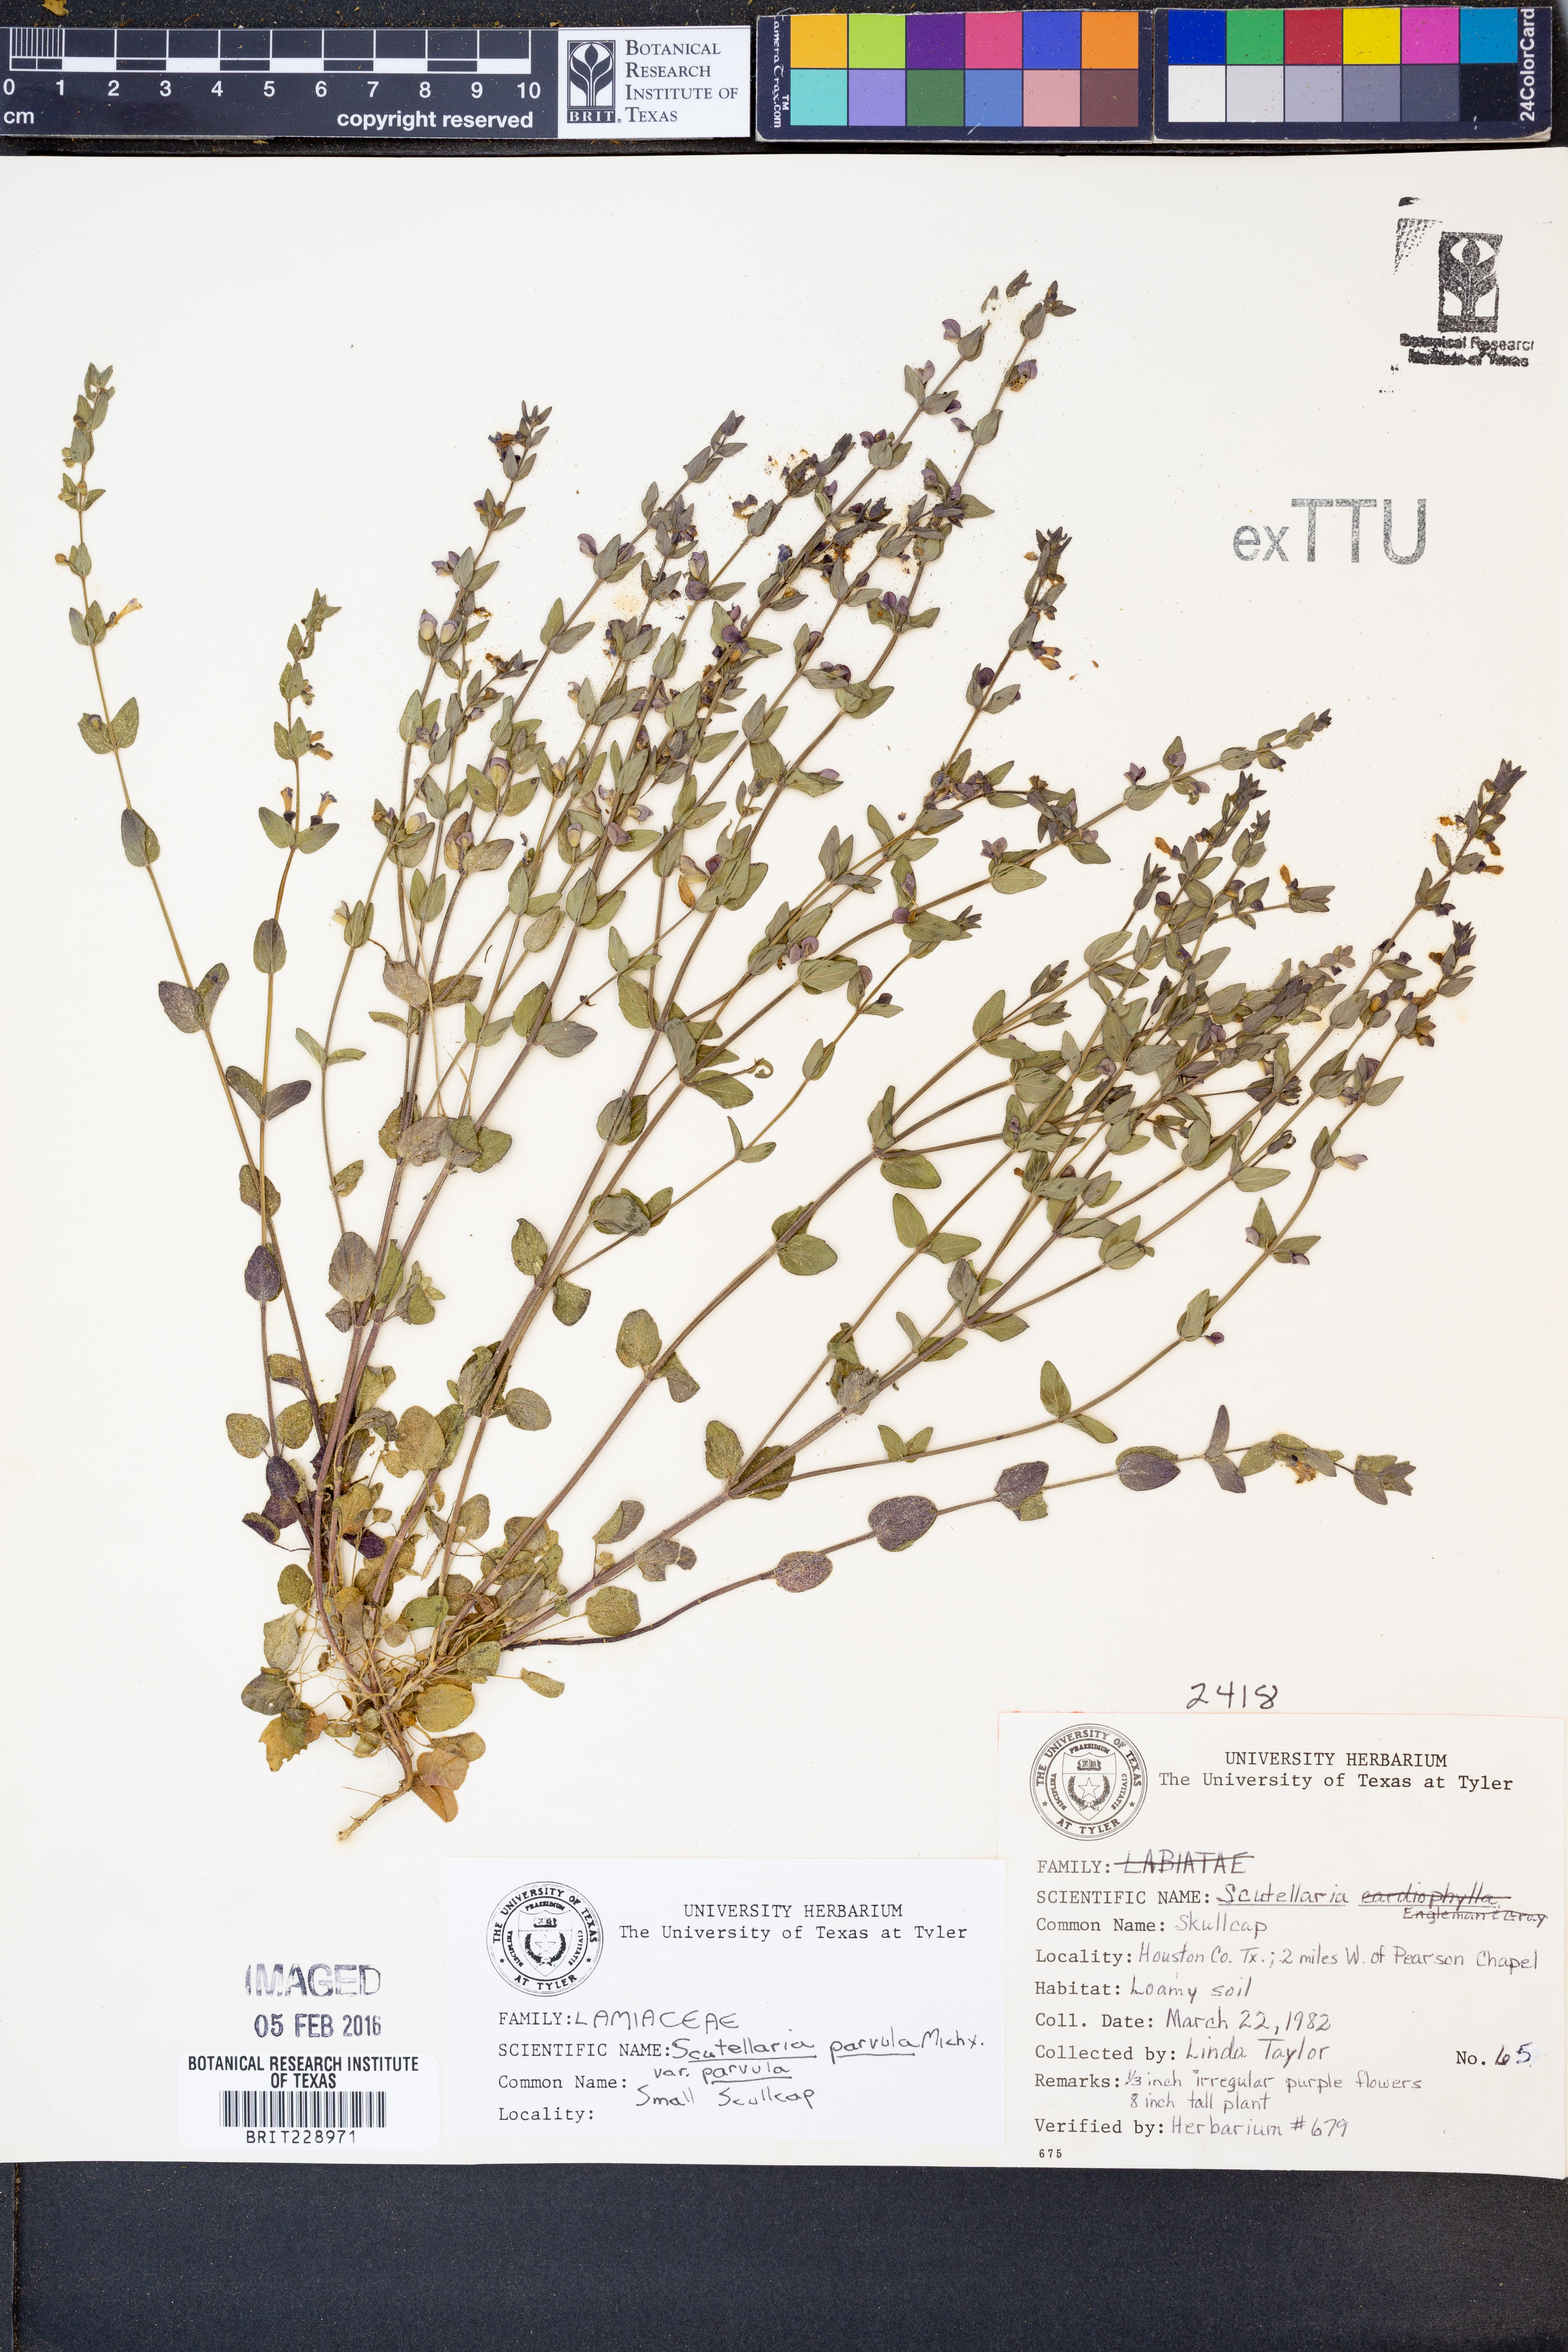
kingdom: Plantae
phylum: Tracheophyta
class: Magnoliopsida
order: Lamiales
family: Lamiaceae
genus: Scutellaria
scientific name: Scutellaria parvula
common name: Little scullcap
